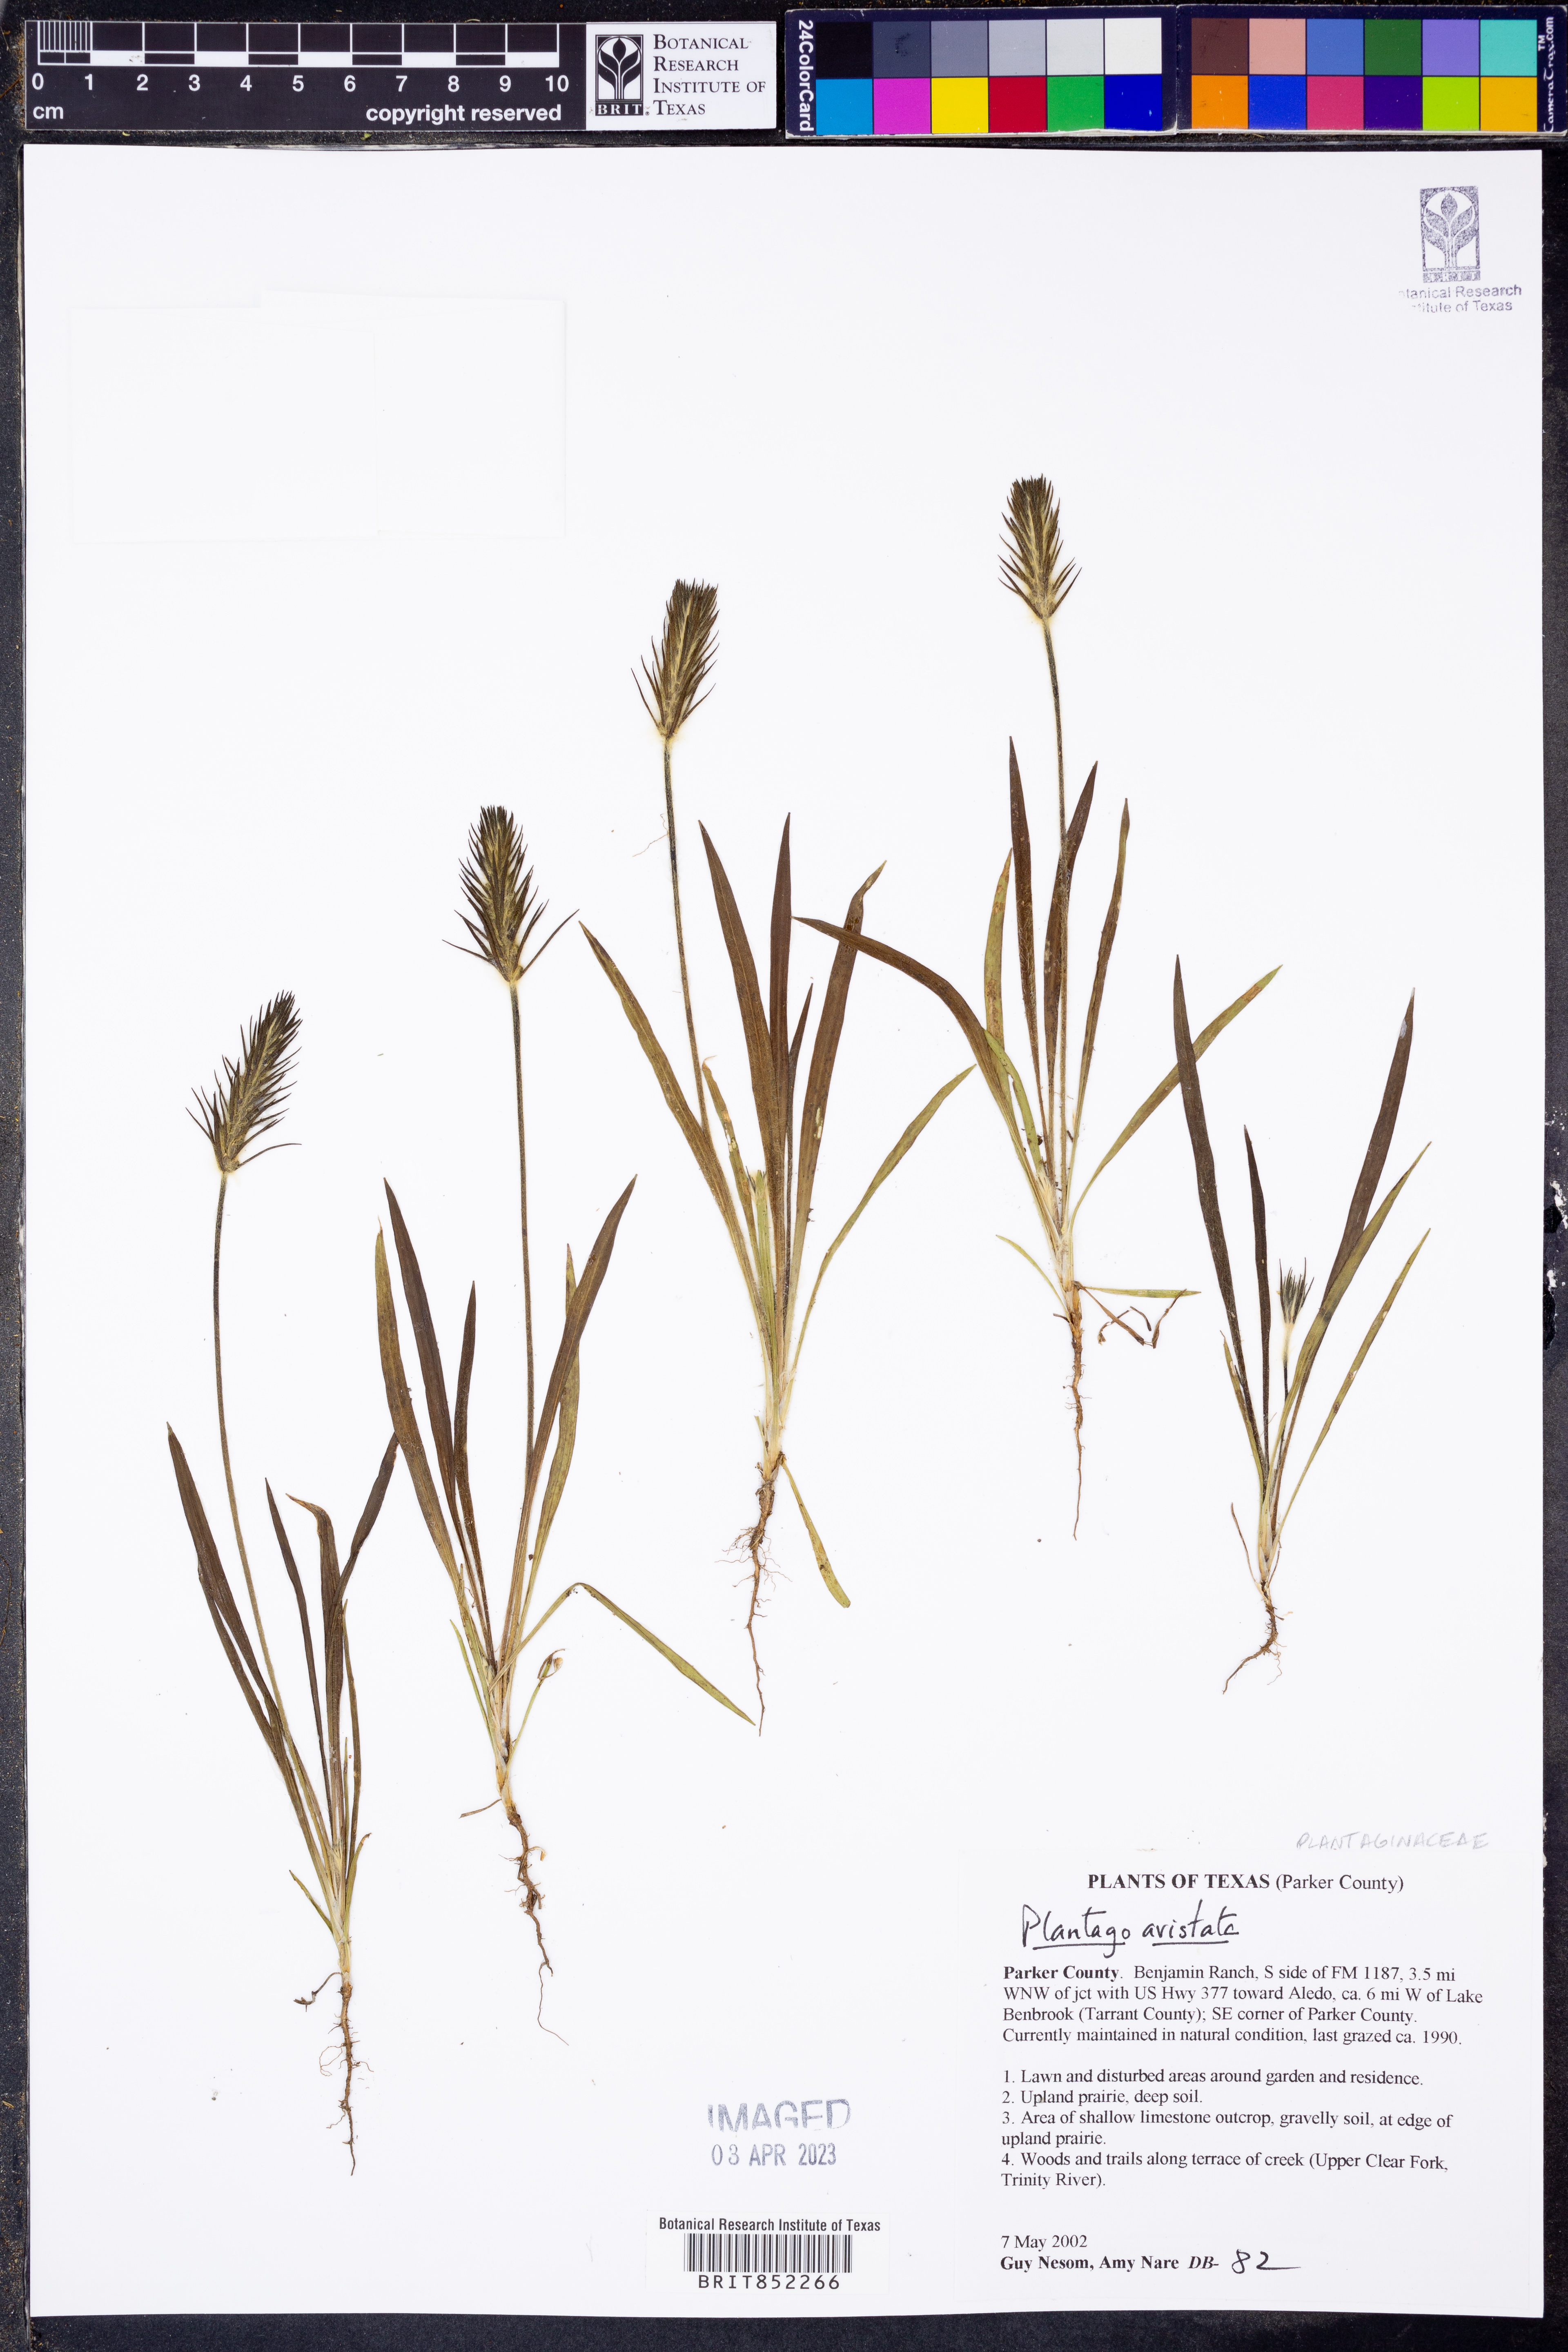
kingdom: Plantae
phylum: Tracheophyta
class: Magnoliopsida
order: Lamiales
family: Plantaginaceae
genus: Plantago
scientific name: Plantago aristata
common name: Bracted plantain
